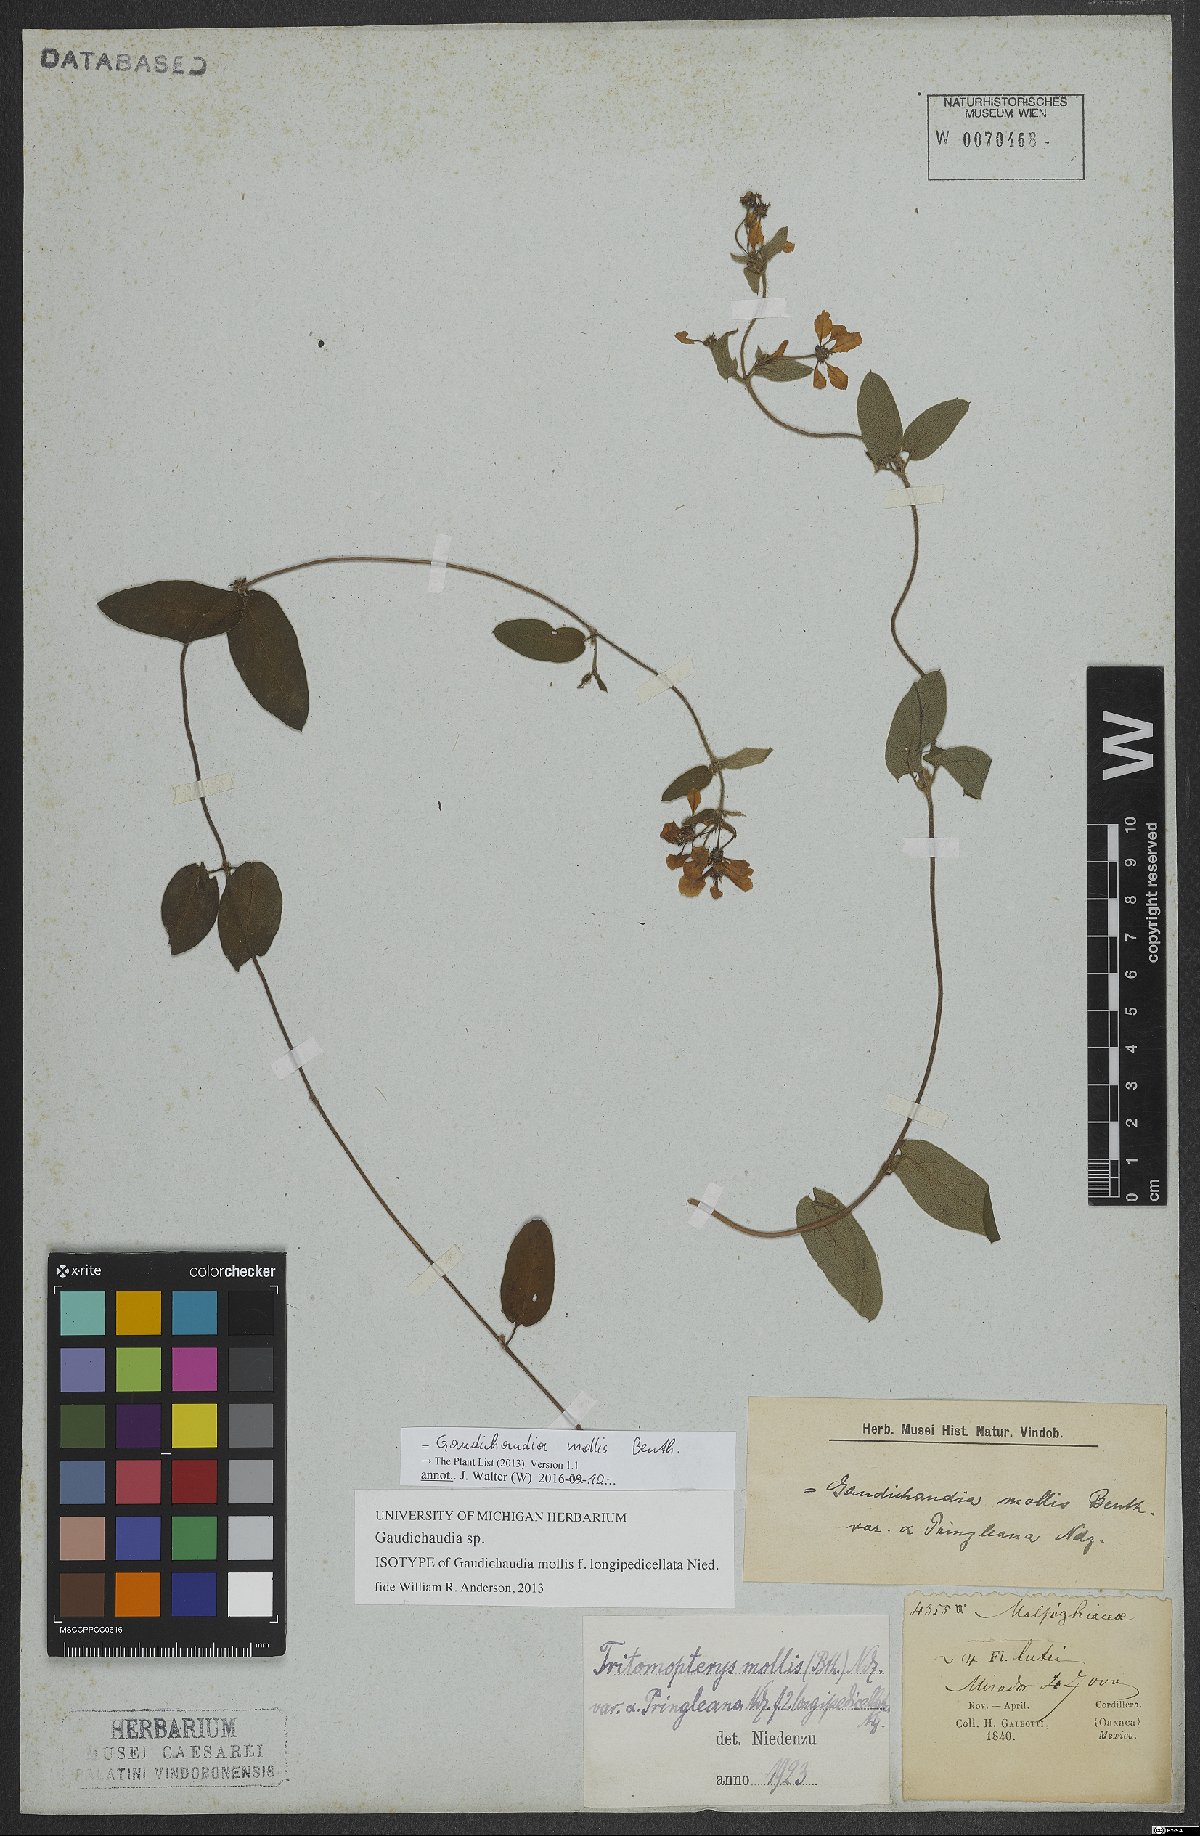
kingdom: Plantae
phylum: Tracheophyta
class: Magnoliopsida
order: Malpighiales
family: Malpighiaceae
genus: Gaudichaudia
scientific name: Gaudichaudia mollis
